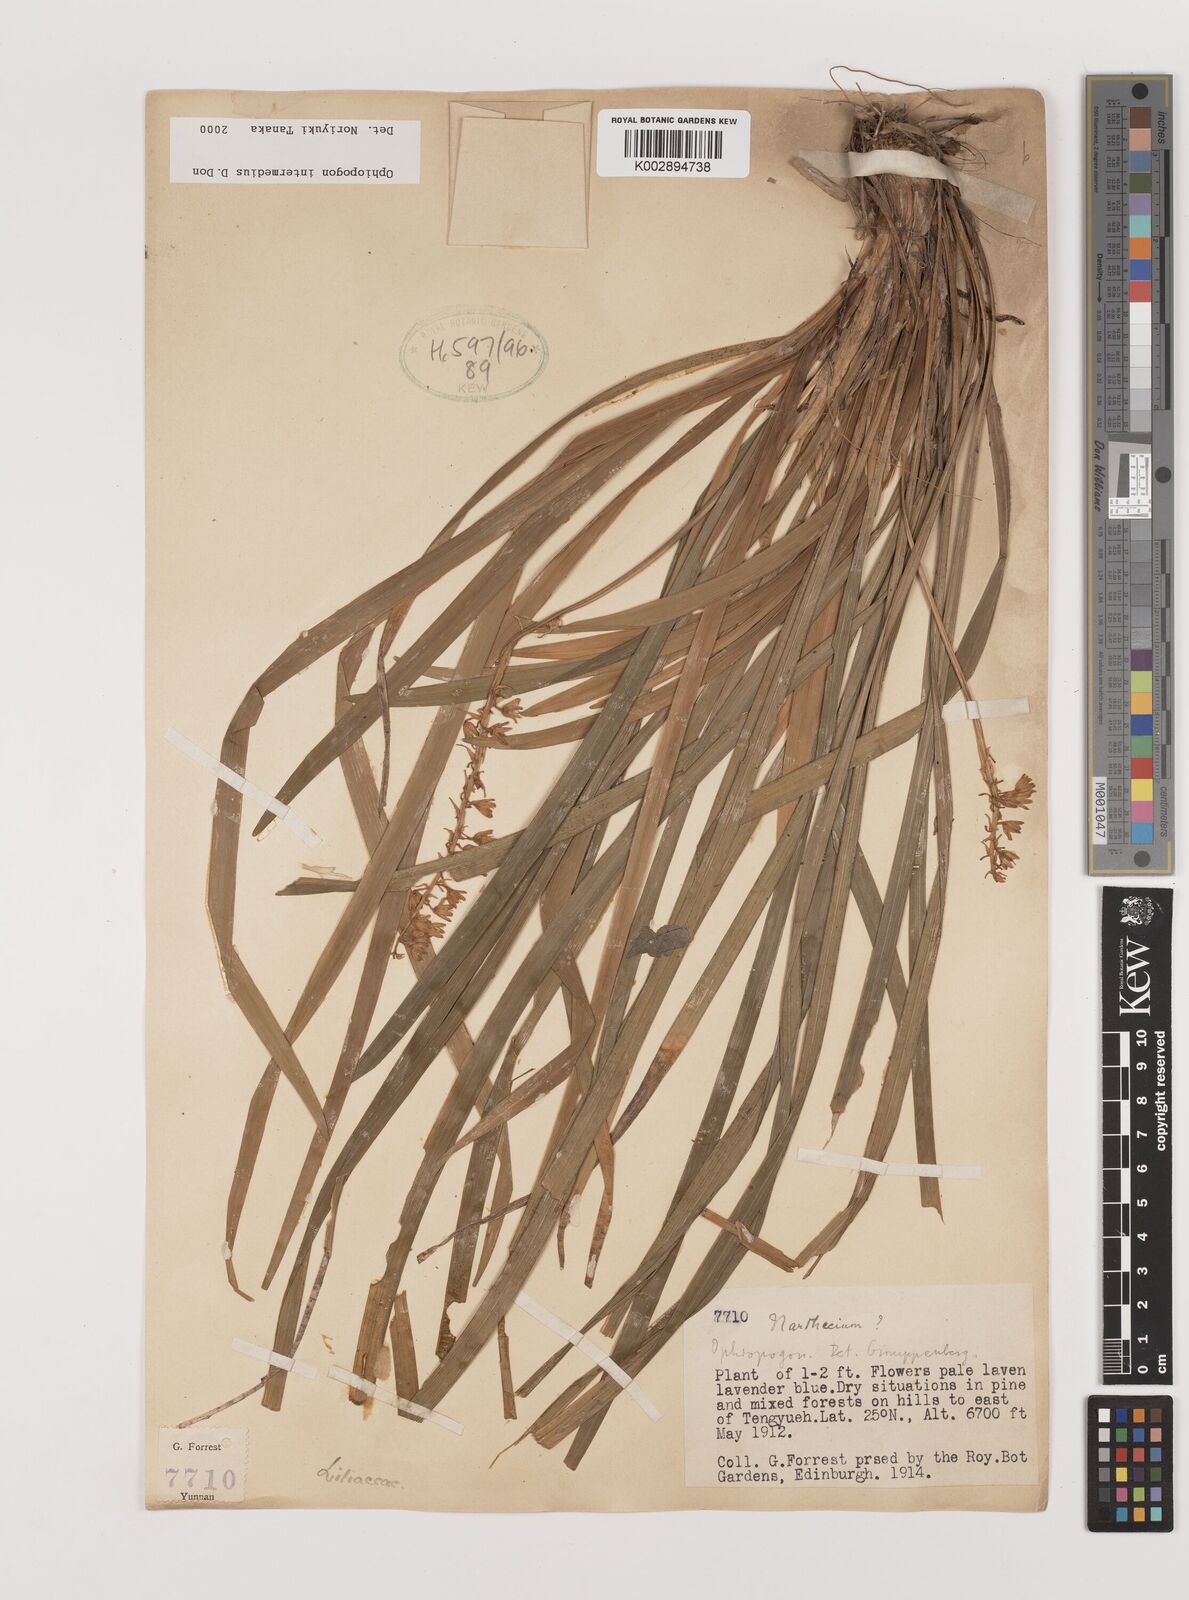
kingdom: Plantae
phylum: Tracheophyta
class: Liliopsida
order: Asparagales
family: Asparagaceae
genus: Ophiopogon
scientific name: Ophiopogon intermedius
